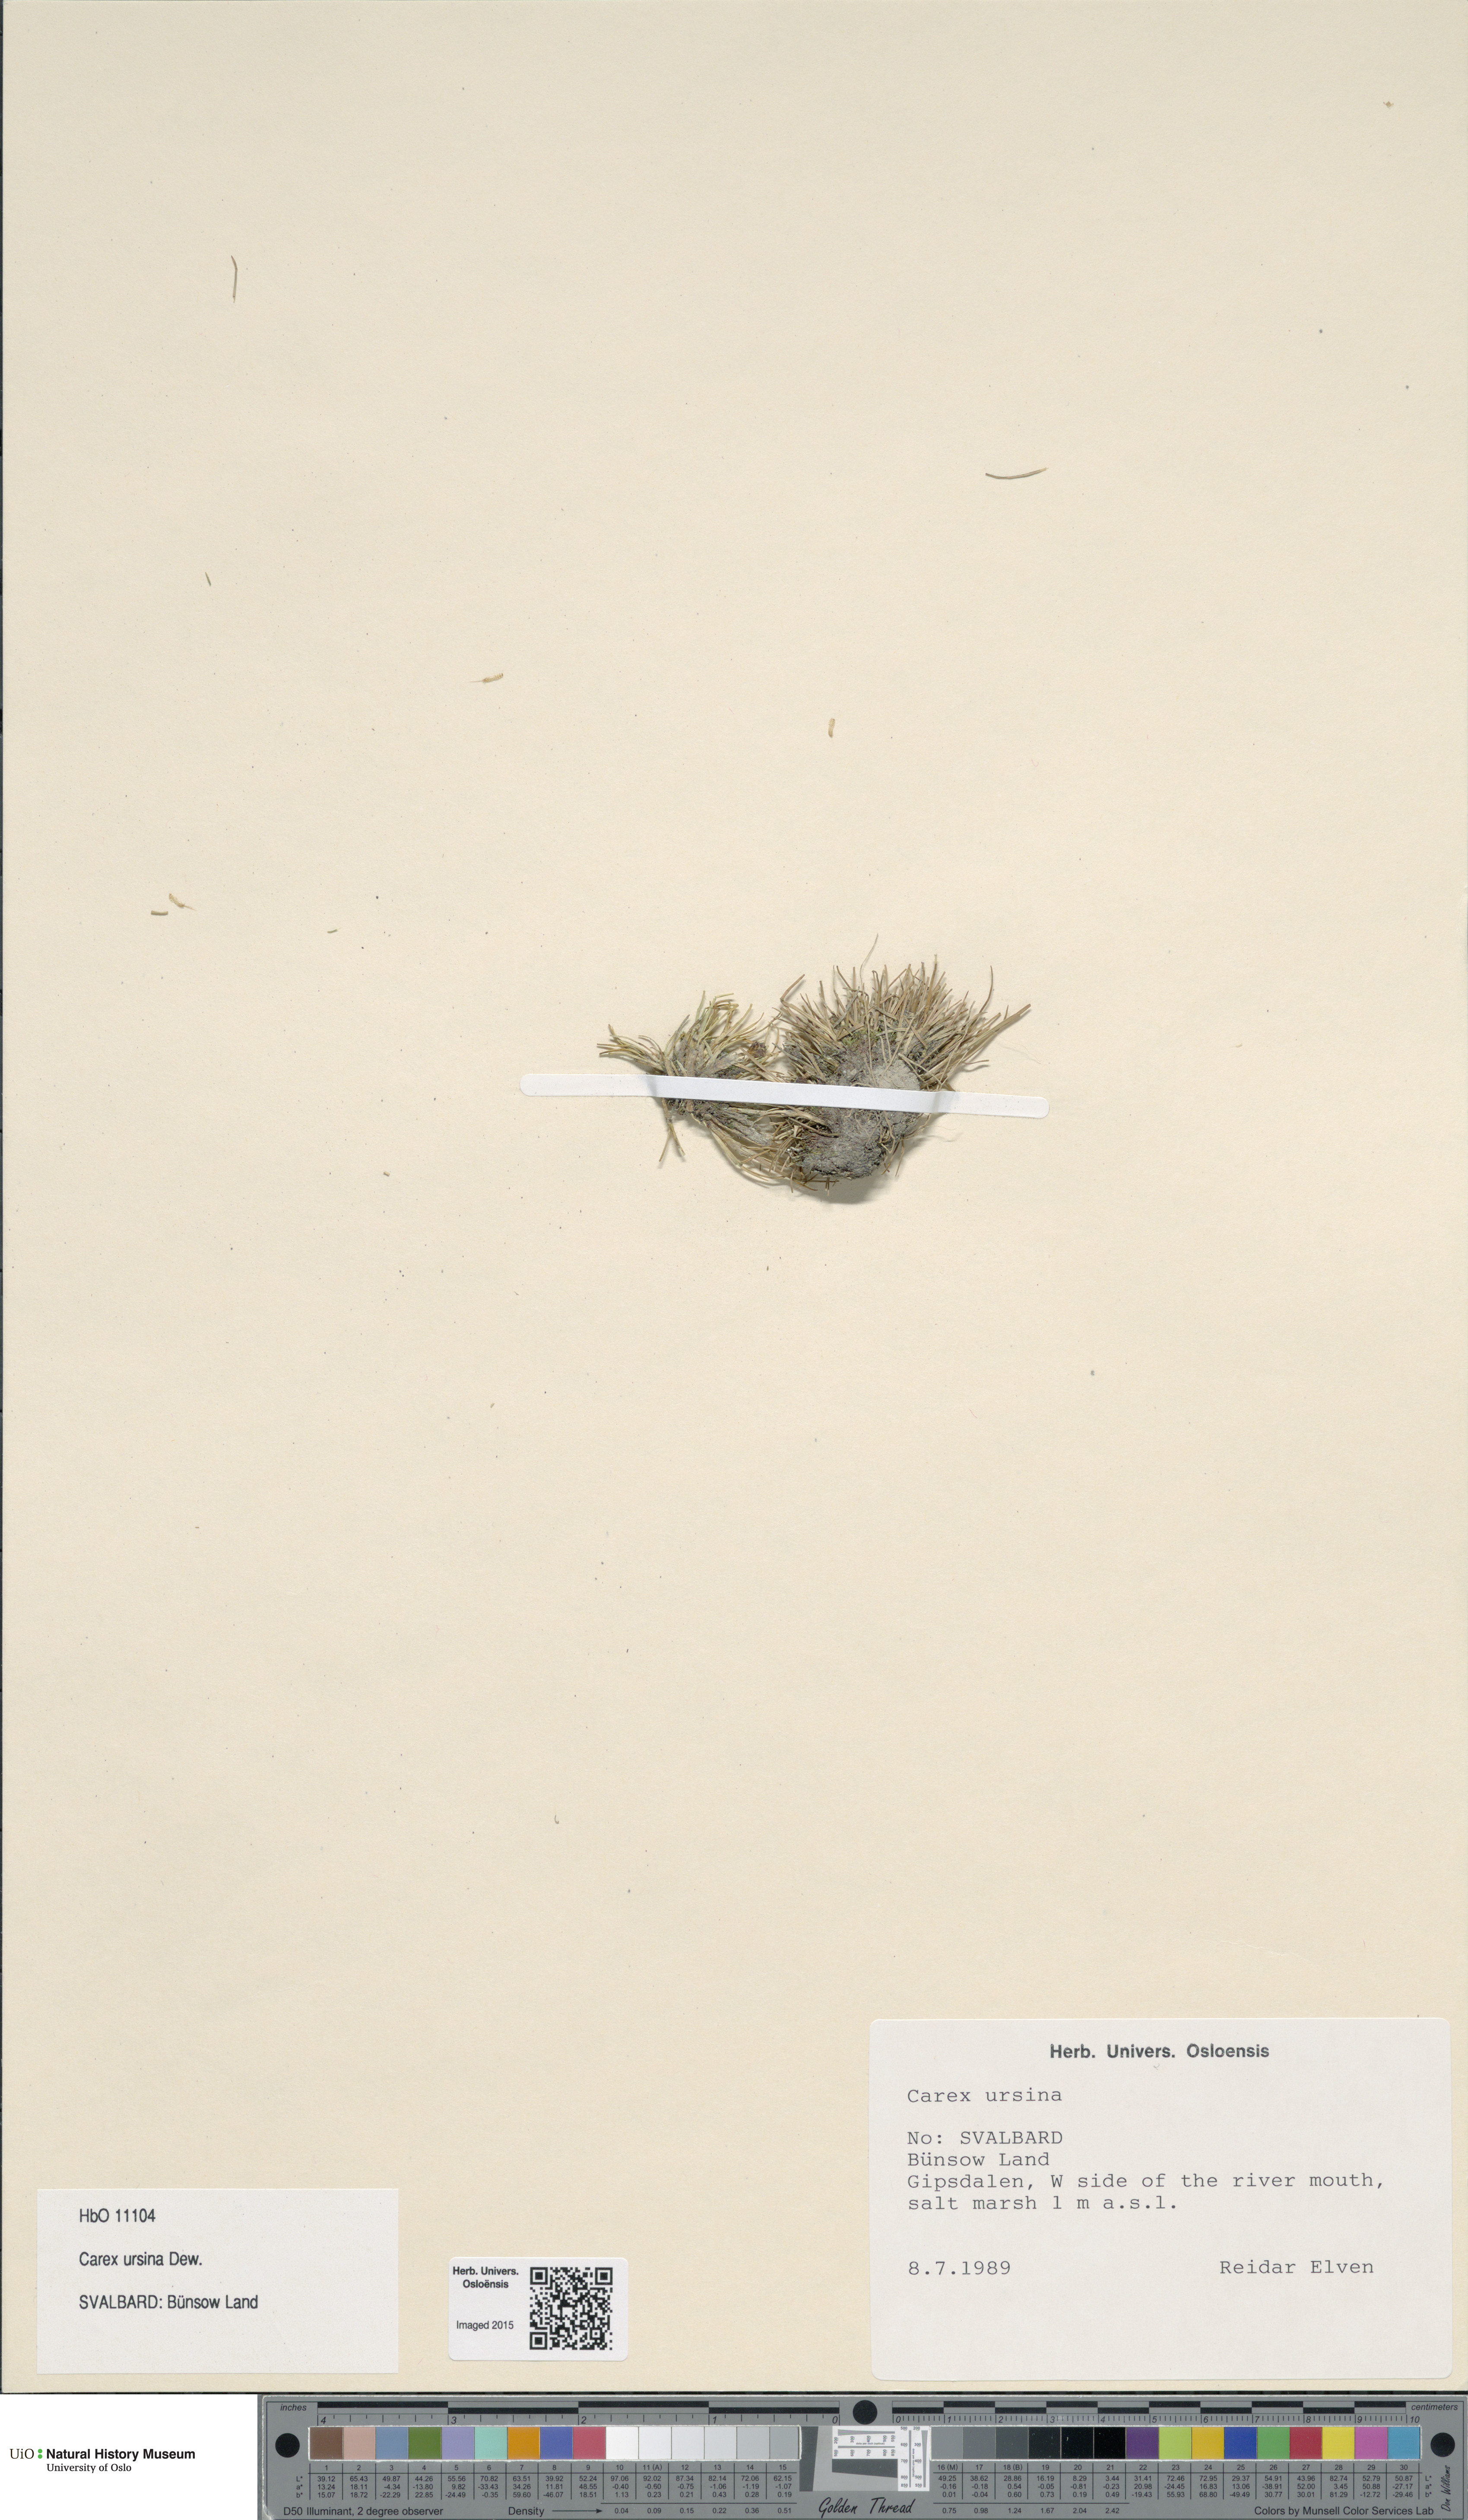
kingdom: Plantae
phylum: Tracheophyta
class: Liliopsida
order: Poales
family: Cyperaceae
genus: Carex
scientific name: Carex ursina
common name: Bear sedge
